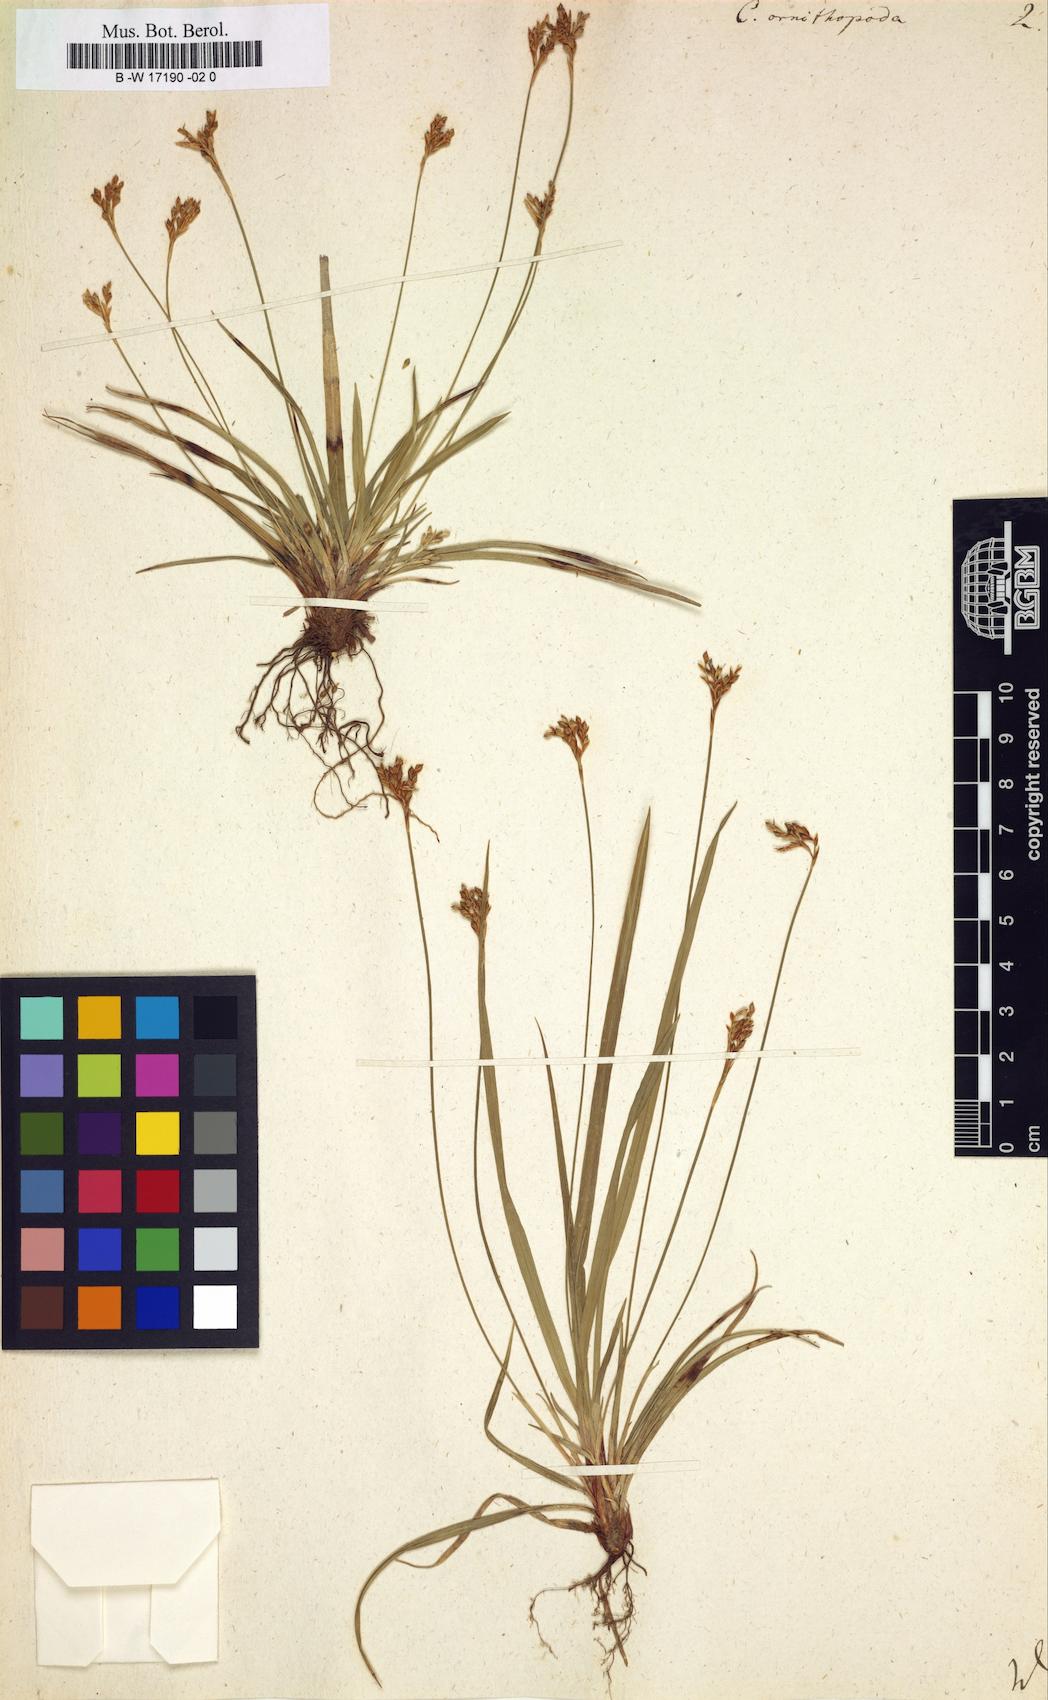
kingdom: Plantae
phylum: Tracheophyta
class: Liliopsida
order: Poales
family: Cyperaceae
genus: Carex
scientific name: Carex ornithopoda
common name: Bird's-foot sedge
